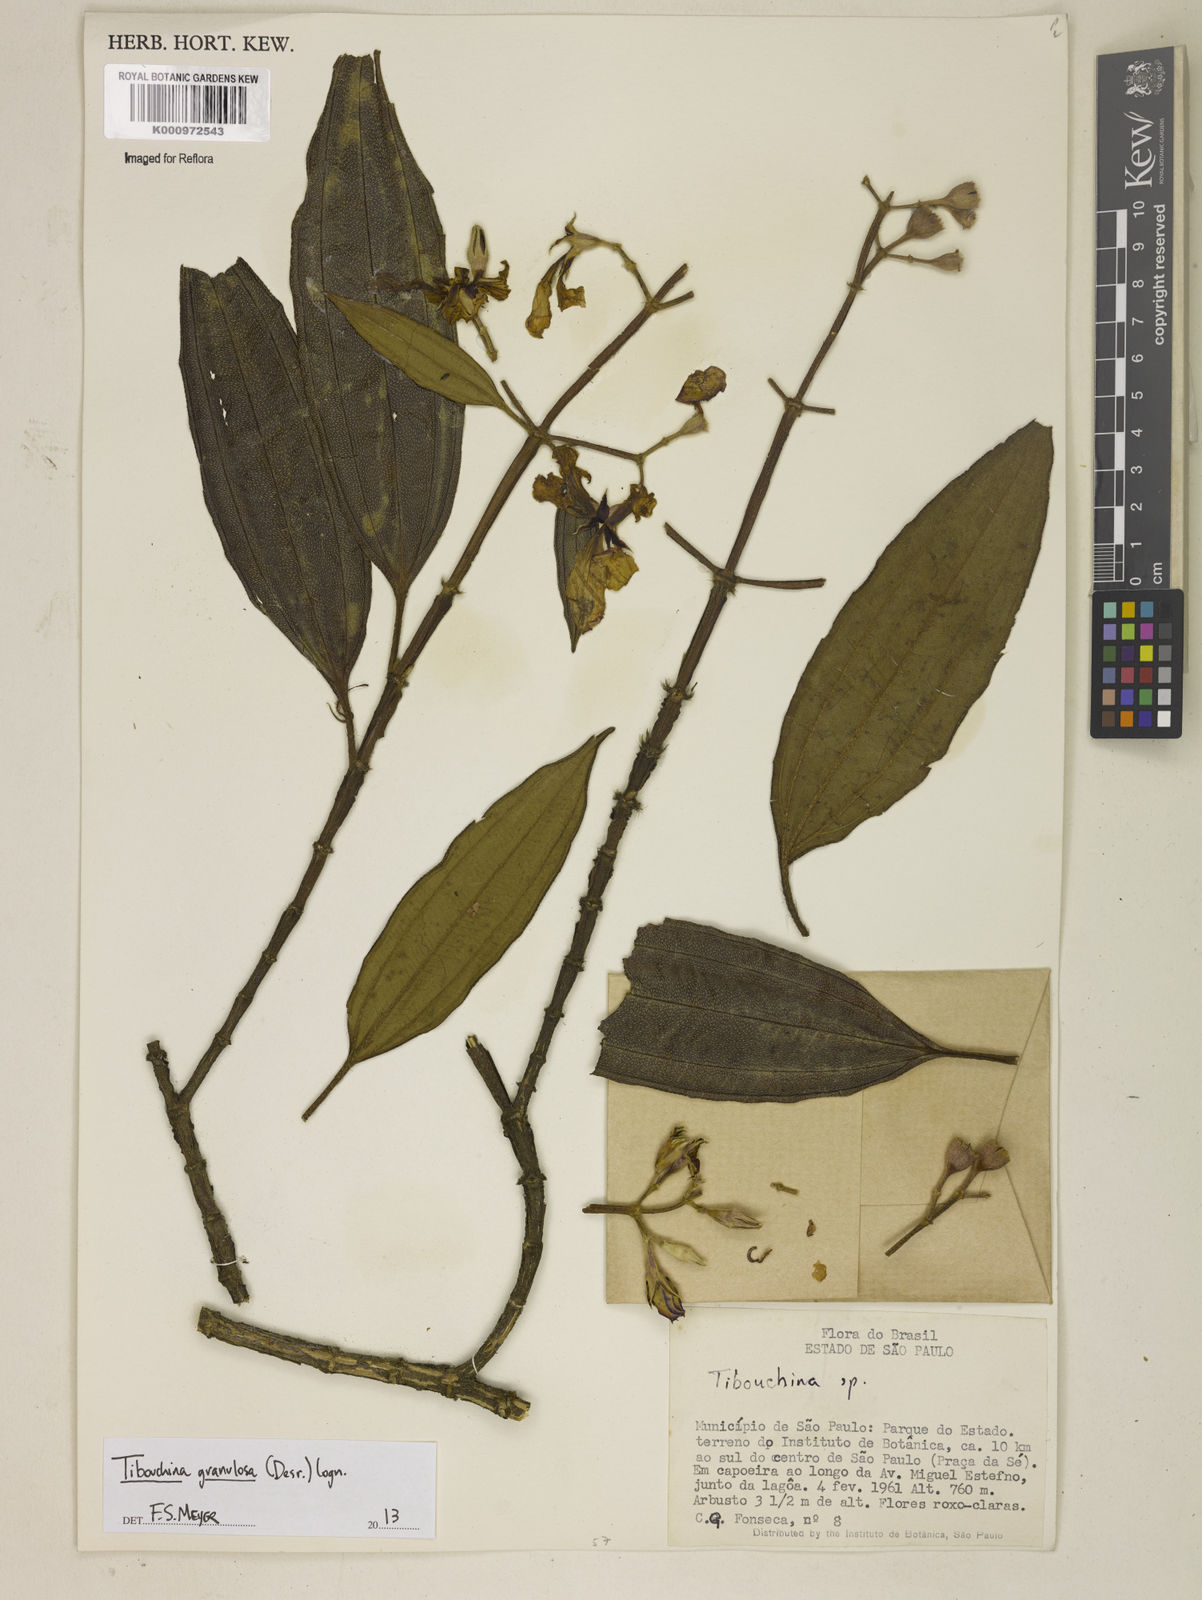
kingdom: Plantae
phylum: Tracheophyta
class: Magnoliopsida
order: Myrtales
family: Melastomataceae
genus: Pleroma
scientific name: Pleroma granulosum
